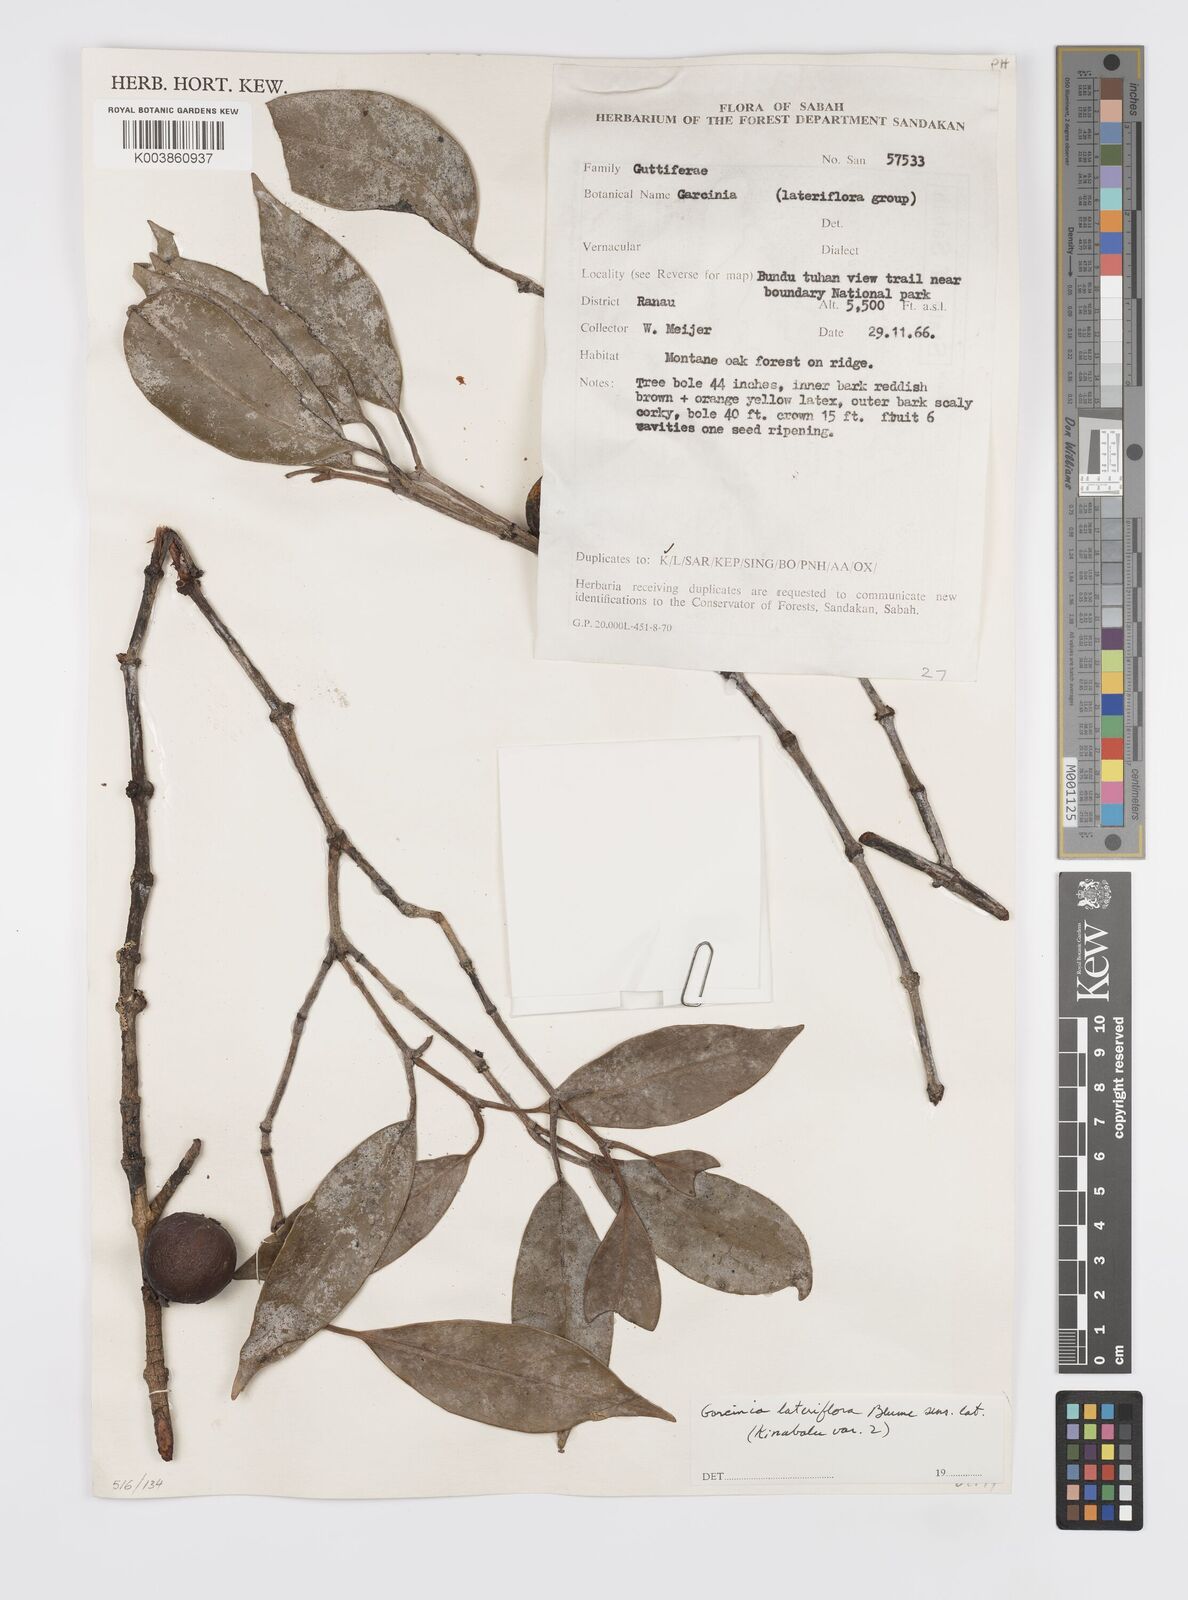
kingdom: Plantae
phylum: Tracheophyta
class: Magnoliopsida
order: Malpighiales
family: Clusiaceae
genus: Garcinia
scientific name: Garcinia lateriflora
